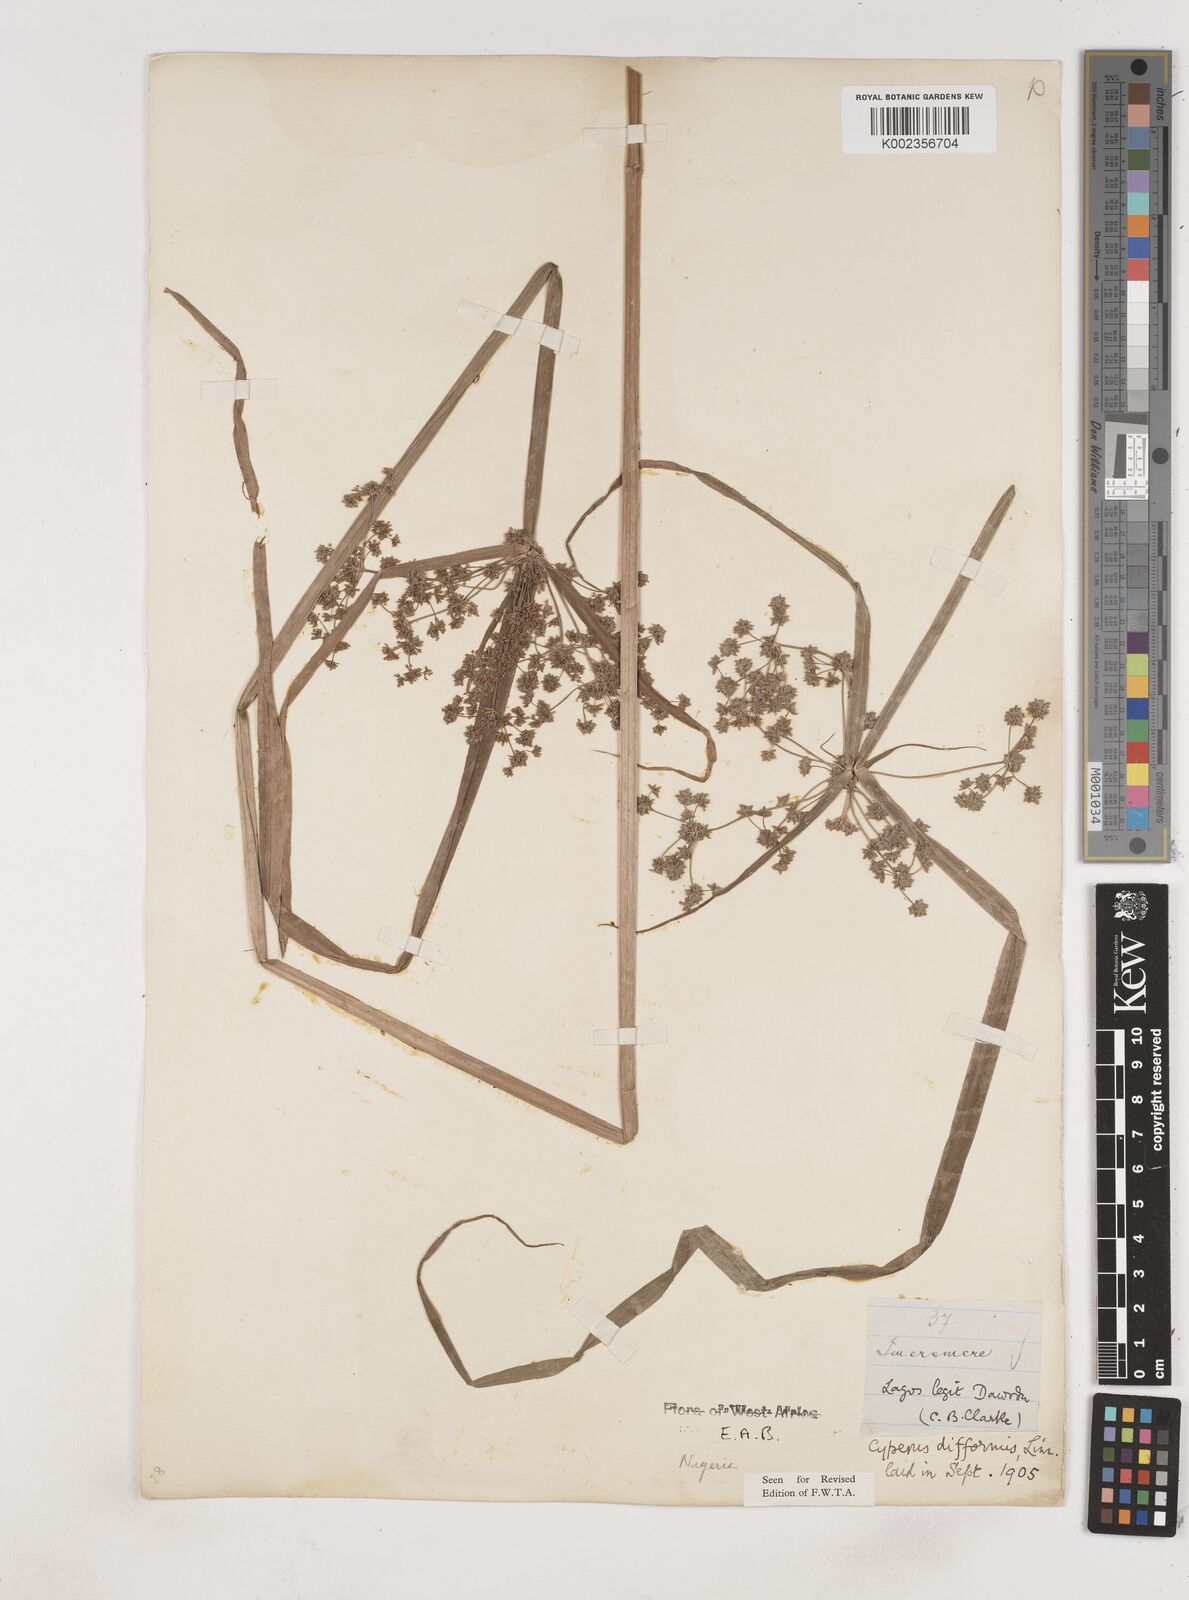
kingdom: Plantae
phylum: Tracheophyta
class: Liliopsida
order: Poales
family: Cyperaceae
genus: Cyperus
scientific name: Cyperus difformis
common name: Variable flatsedge
